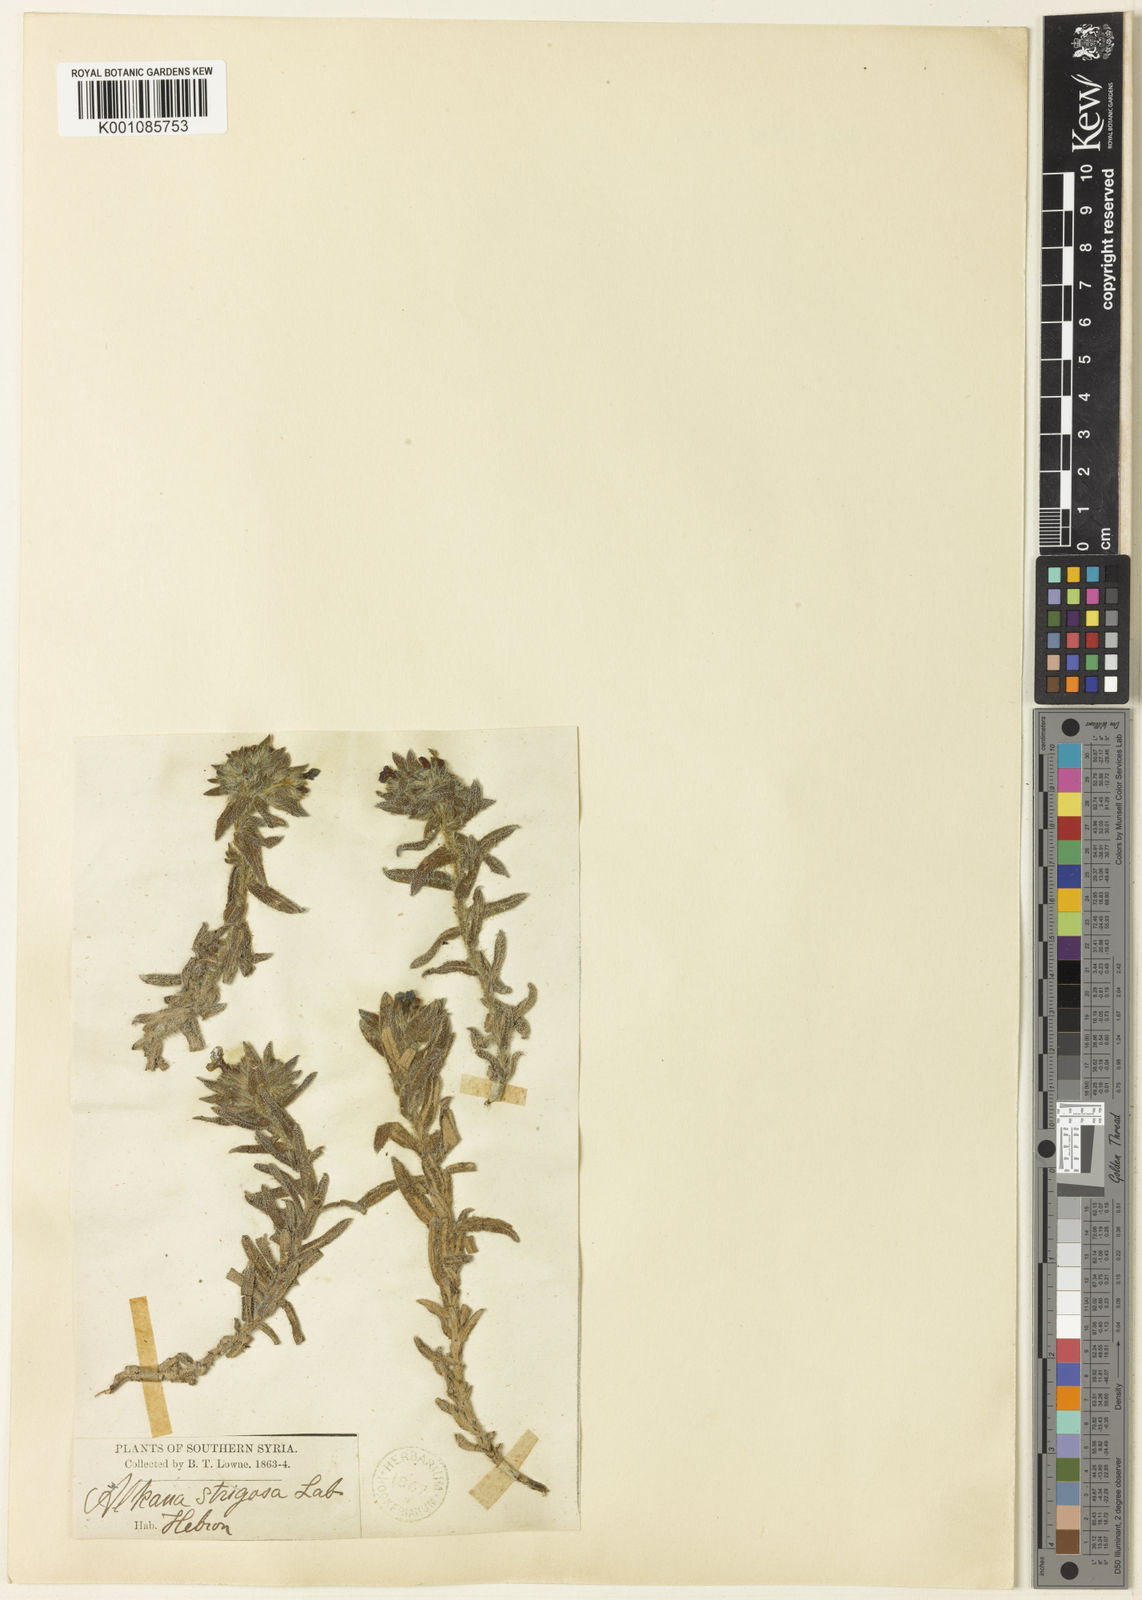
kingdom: Plantae
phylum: Tracheophyta
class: Magnoliopsida
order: Boraginales
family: Boraginaceae
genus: Alkanna
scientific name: Alkanna strigosa
